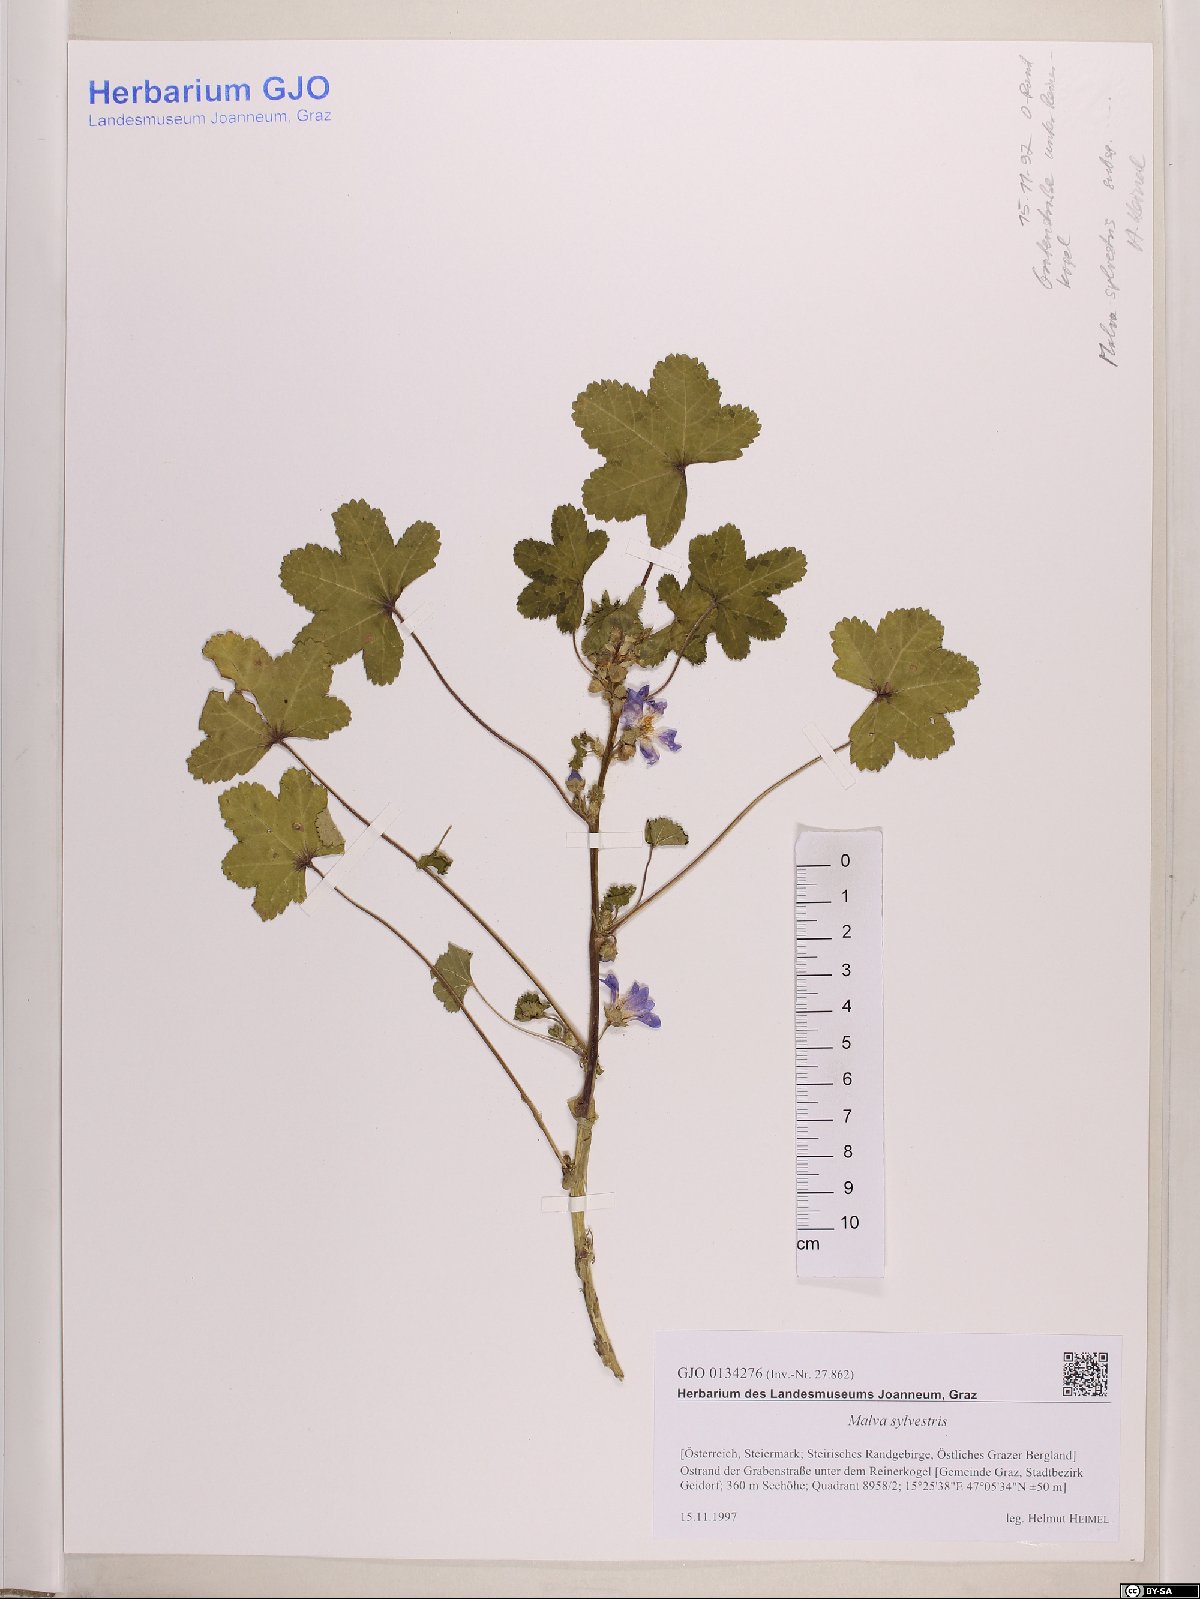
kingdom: Plantae
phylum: Tracheophyta
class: Magnoliopsida
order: Malvales
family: Malvaceae
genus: Malva
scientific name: Malva sylvestris
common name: Common mallow
